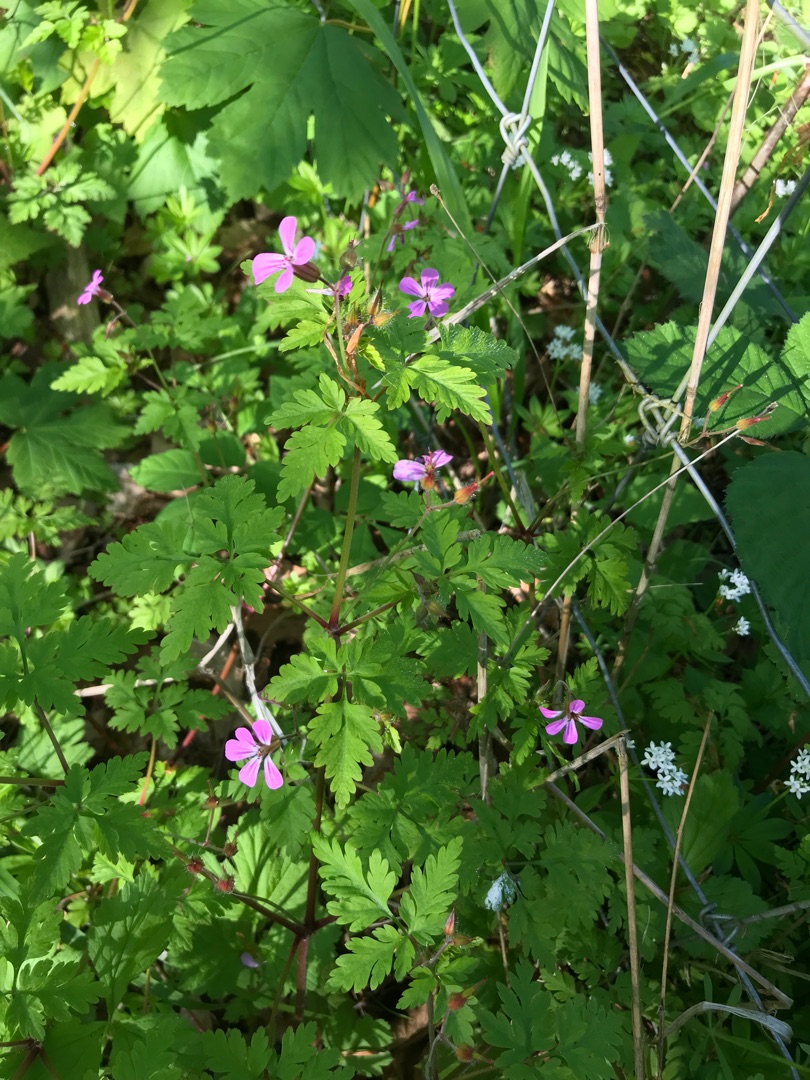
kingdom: Plantae
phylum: Tracheophyta
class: Magnoliopsida
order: Geraniales
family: Geraniaceae
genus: Geranium
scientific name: Geranium robertianum
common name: Stinkende storkenæb
